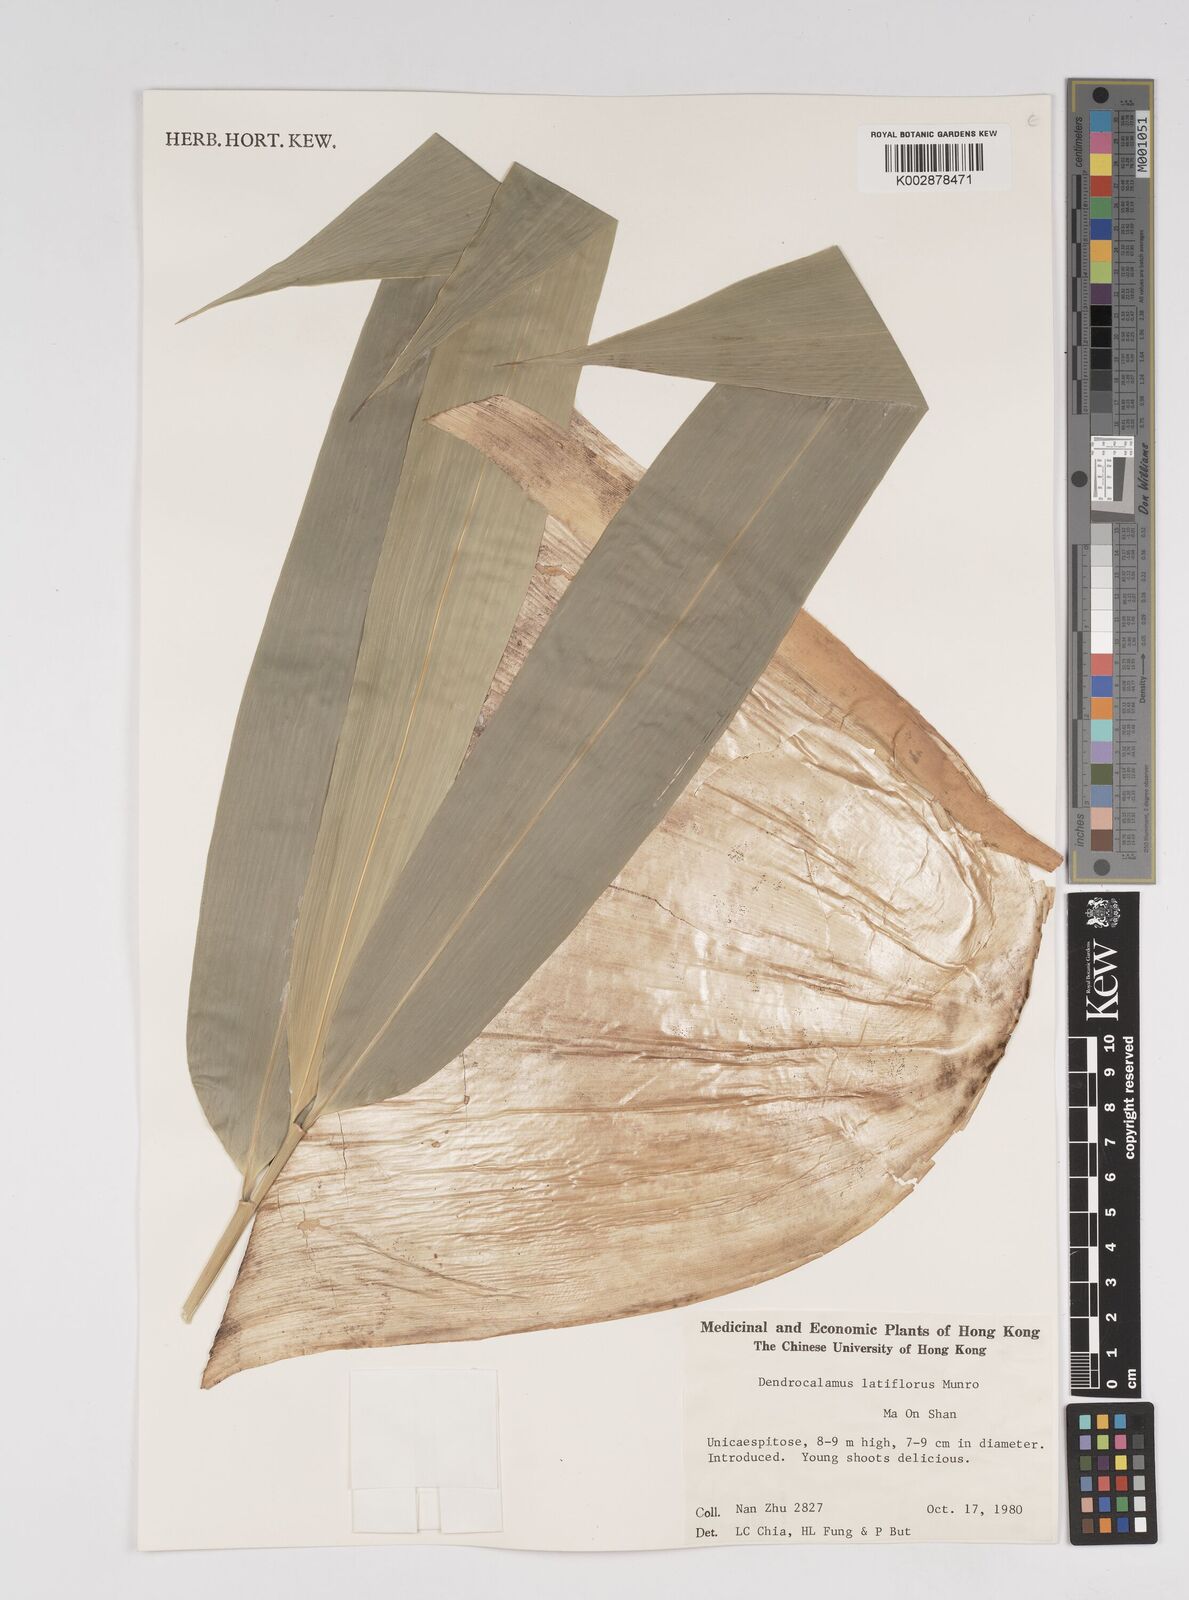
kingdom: Plantae
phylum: Tracheophyta
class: Liliopsida
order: Poales
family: Poaceae
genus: Dendrocalamus
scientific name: Dendrocalamus latiflorus
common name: Giant bamboo
